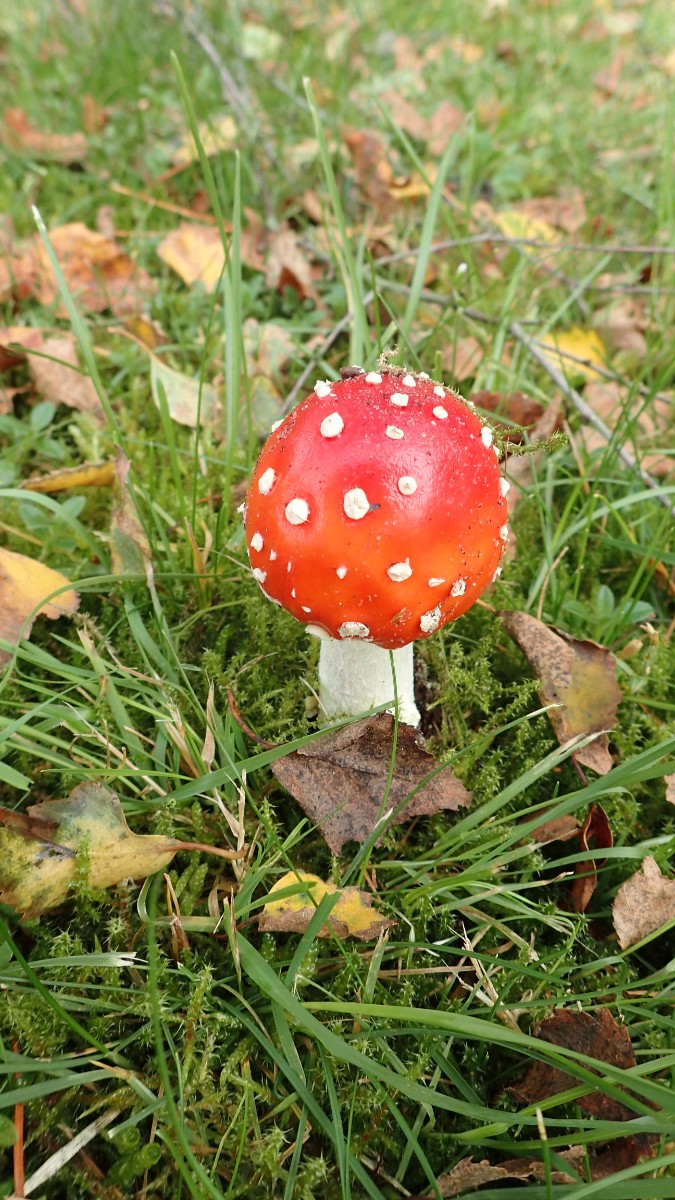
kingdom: Fungi
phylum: Basidiomycota
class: Agaricomycetes
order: Agaricales
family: Amanitaceae
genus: Amanita
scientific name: Amanita muscaria
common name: rød fluesvamp
